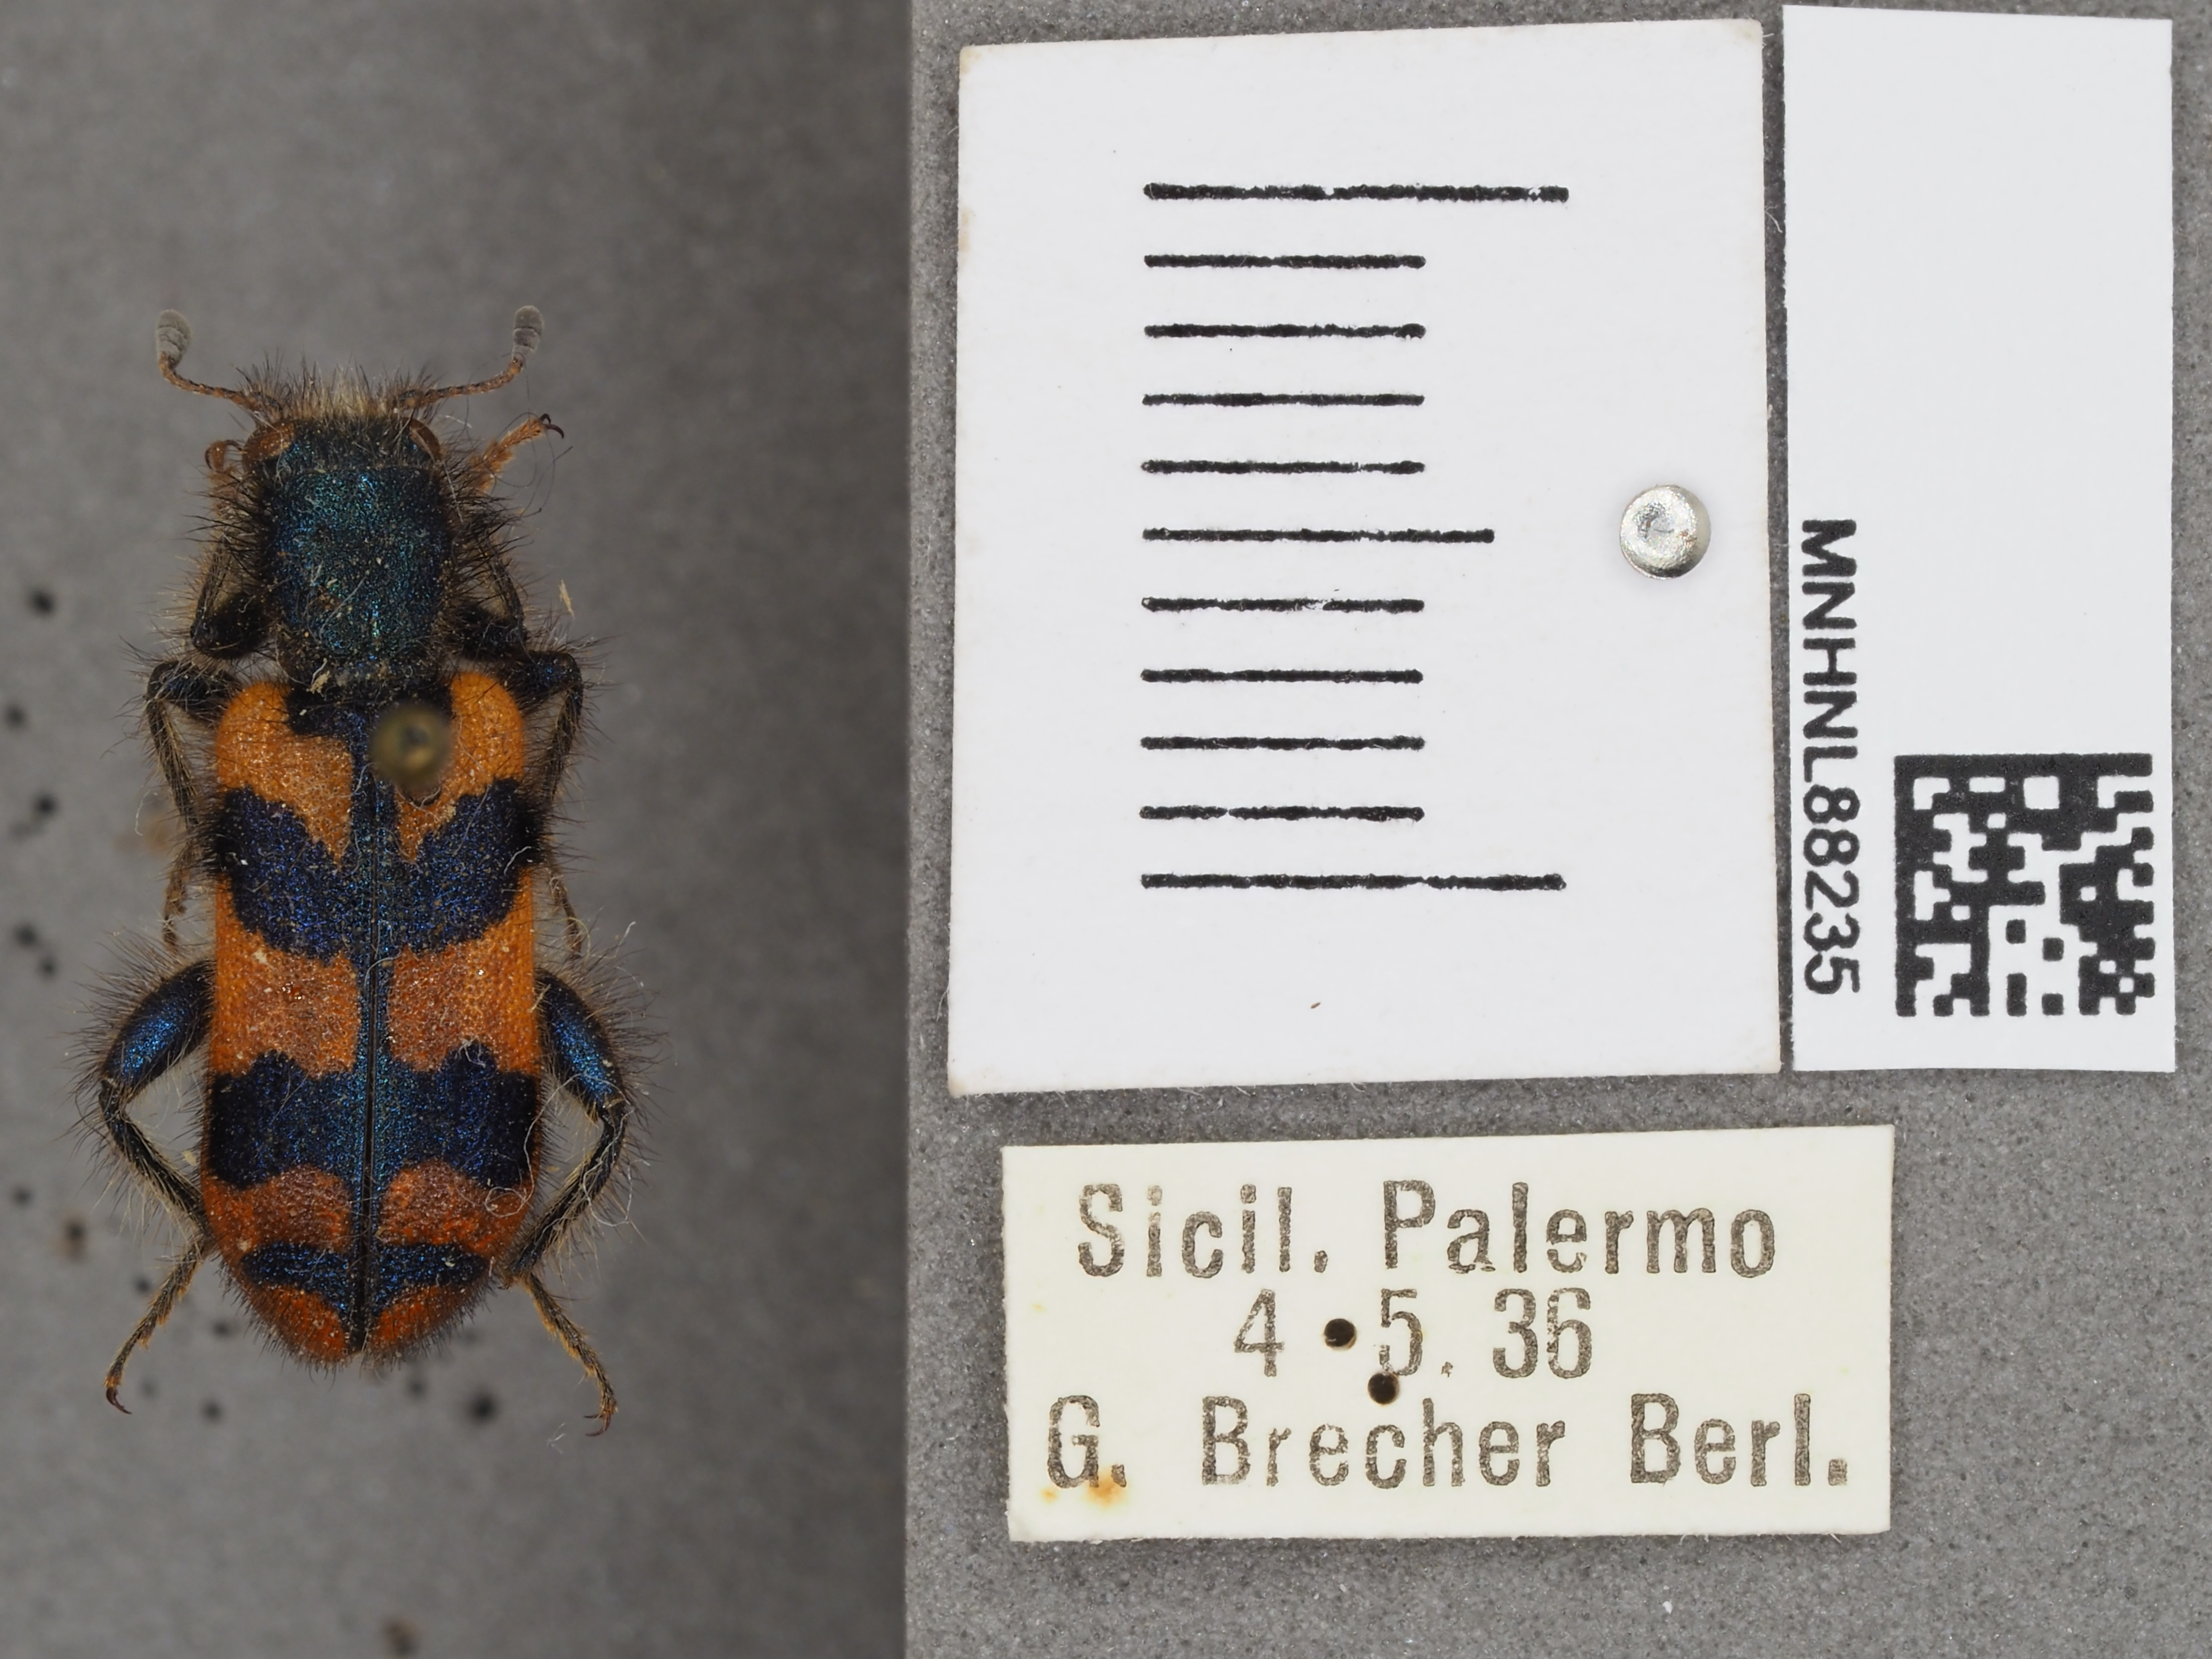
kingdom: Animalia
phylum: Arthropoda
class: Insecta
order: Coleoptera
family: Cleridae
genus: Trichodes
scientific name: Trichodes alvearius
